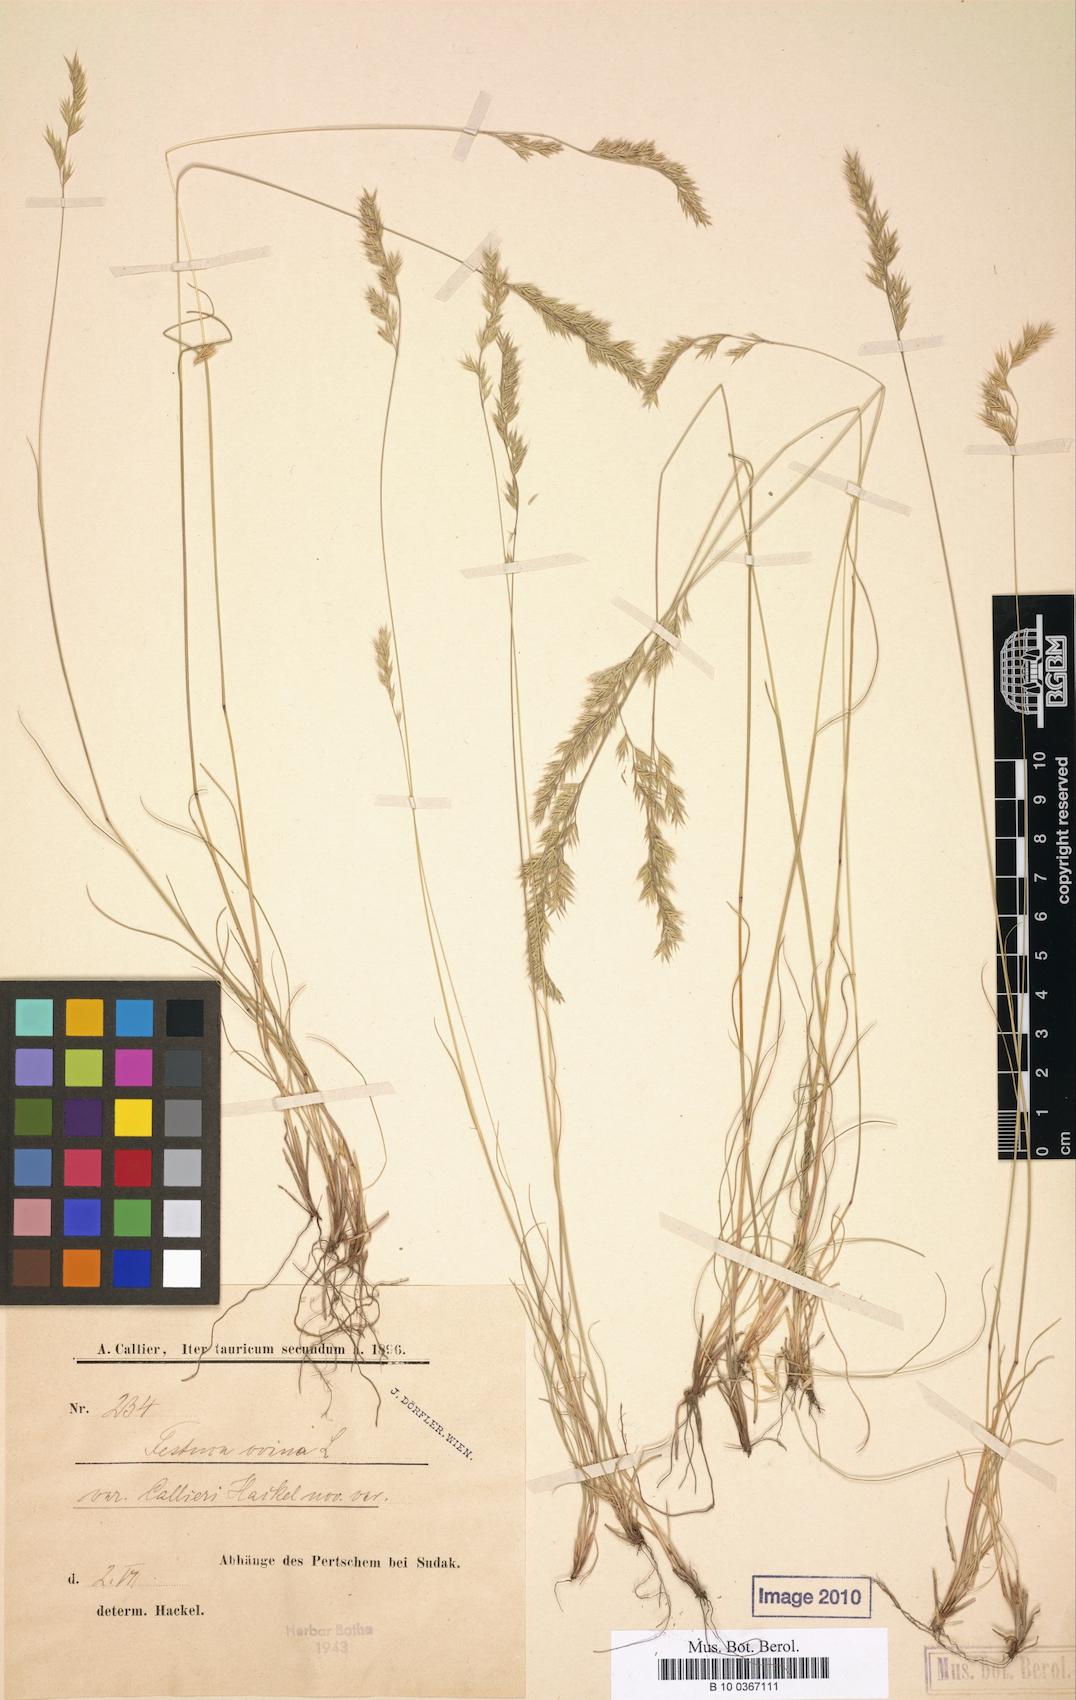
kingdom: Plantae
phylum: Tracheophyta
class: Liliopsida
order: Poales
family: Poaceae
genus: Festuca
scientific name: Festuca callieri
